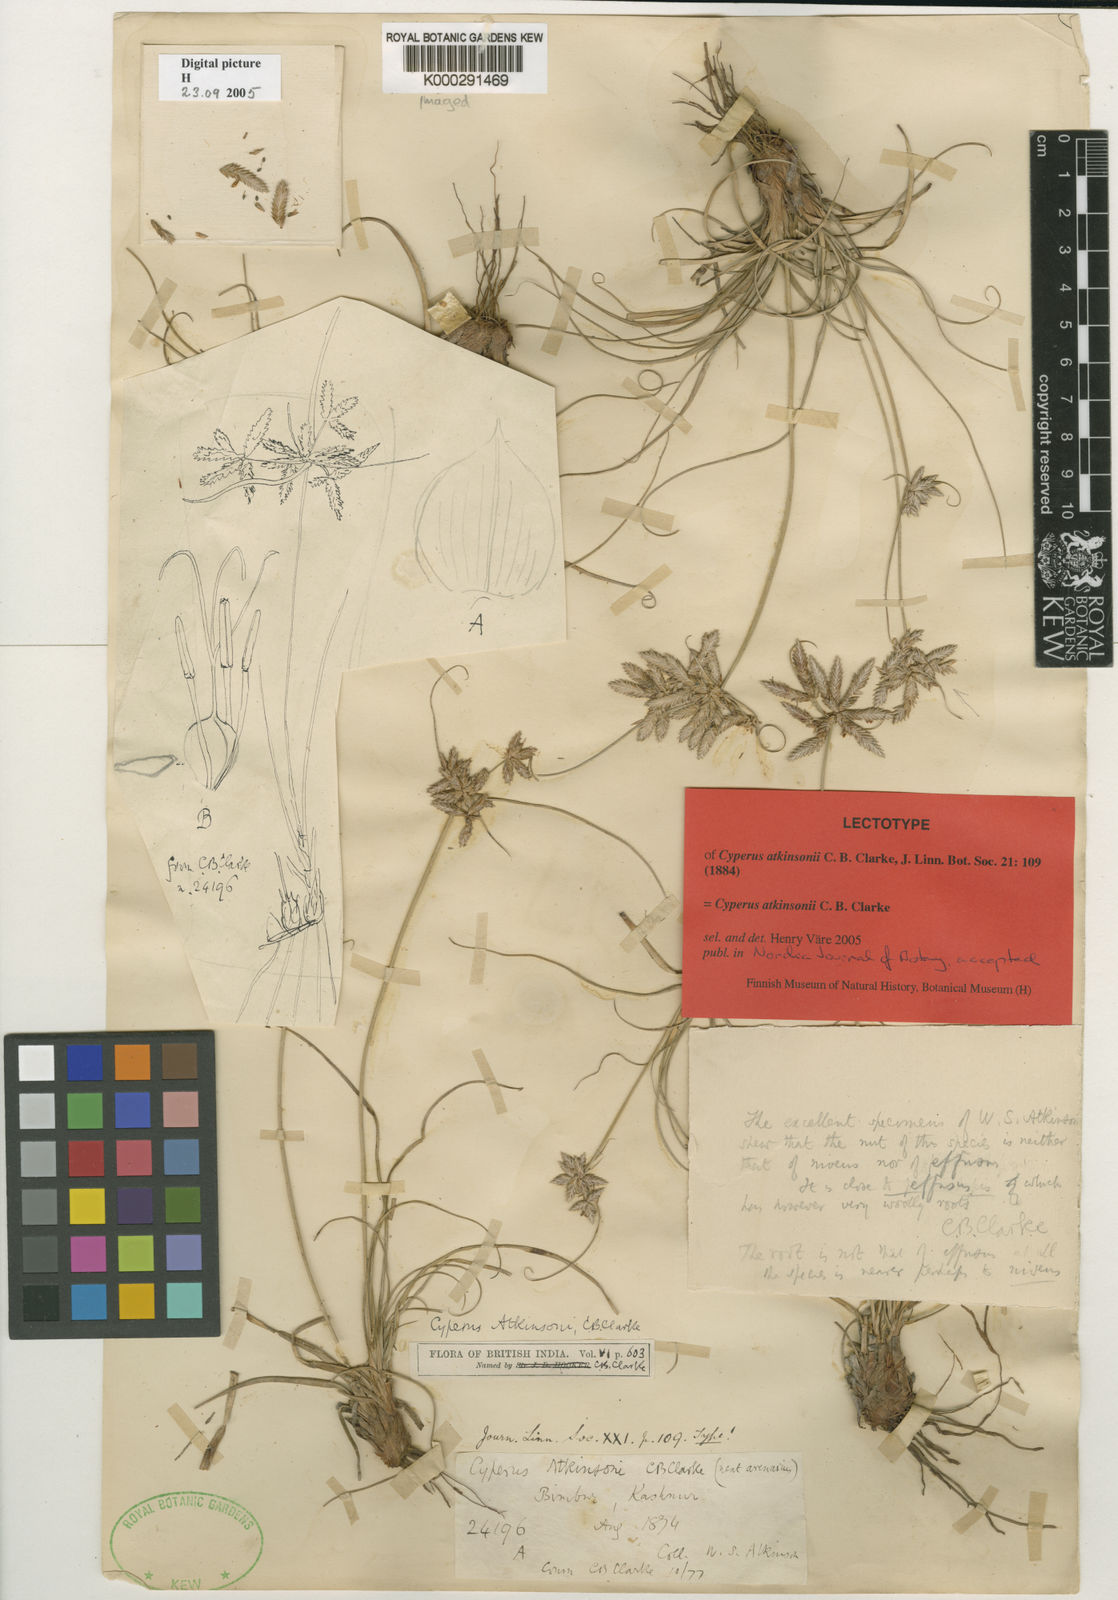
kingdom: Plantae
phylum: Tracheophyta
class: Liliopsida
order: Poales
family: Cyperaceae
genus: Cyperus
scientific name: Cyperus atkinsonii
